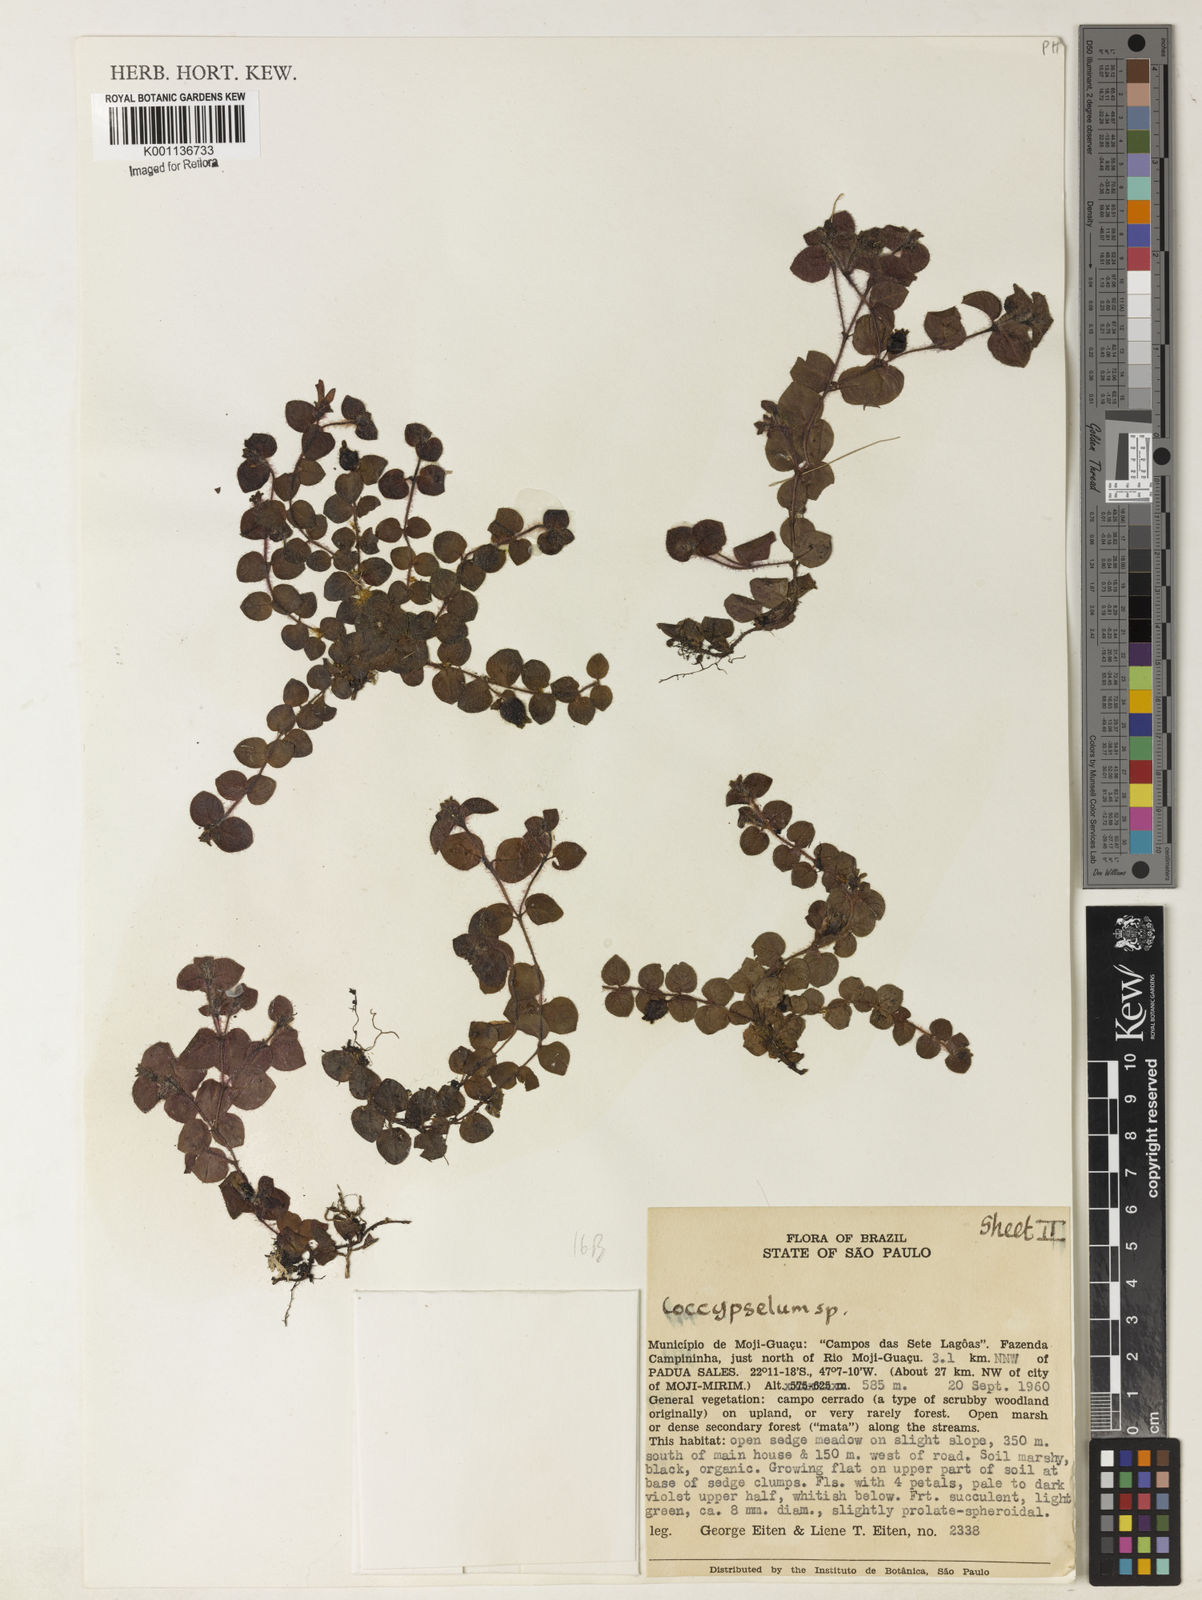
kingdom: Plantae
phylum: Tracheophyta
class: Magnoliopsida
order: Gentianales
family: Rubiaceae
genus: Coccocypselum
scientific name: Coccocypselum lymansmithii
